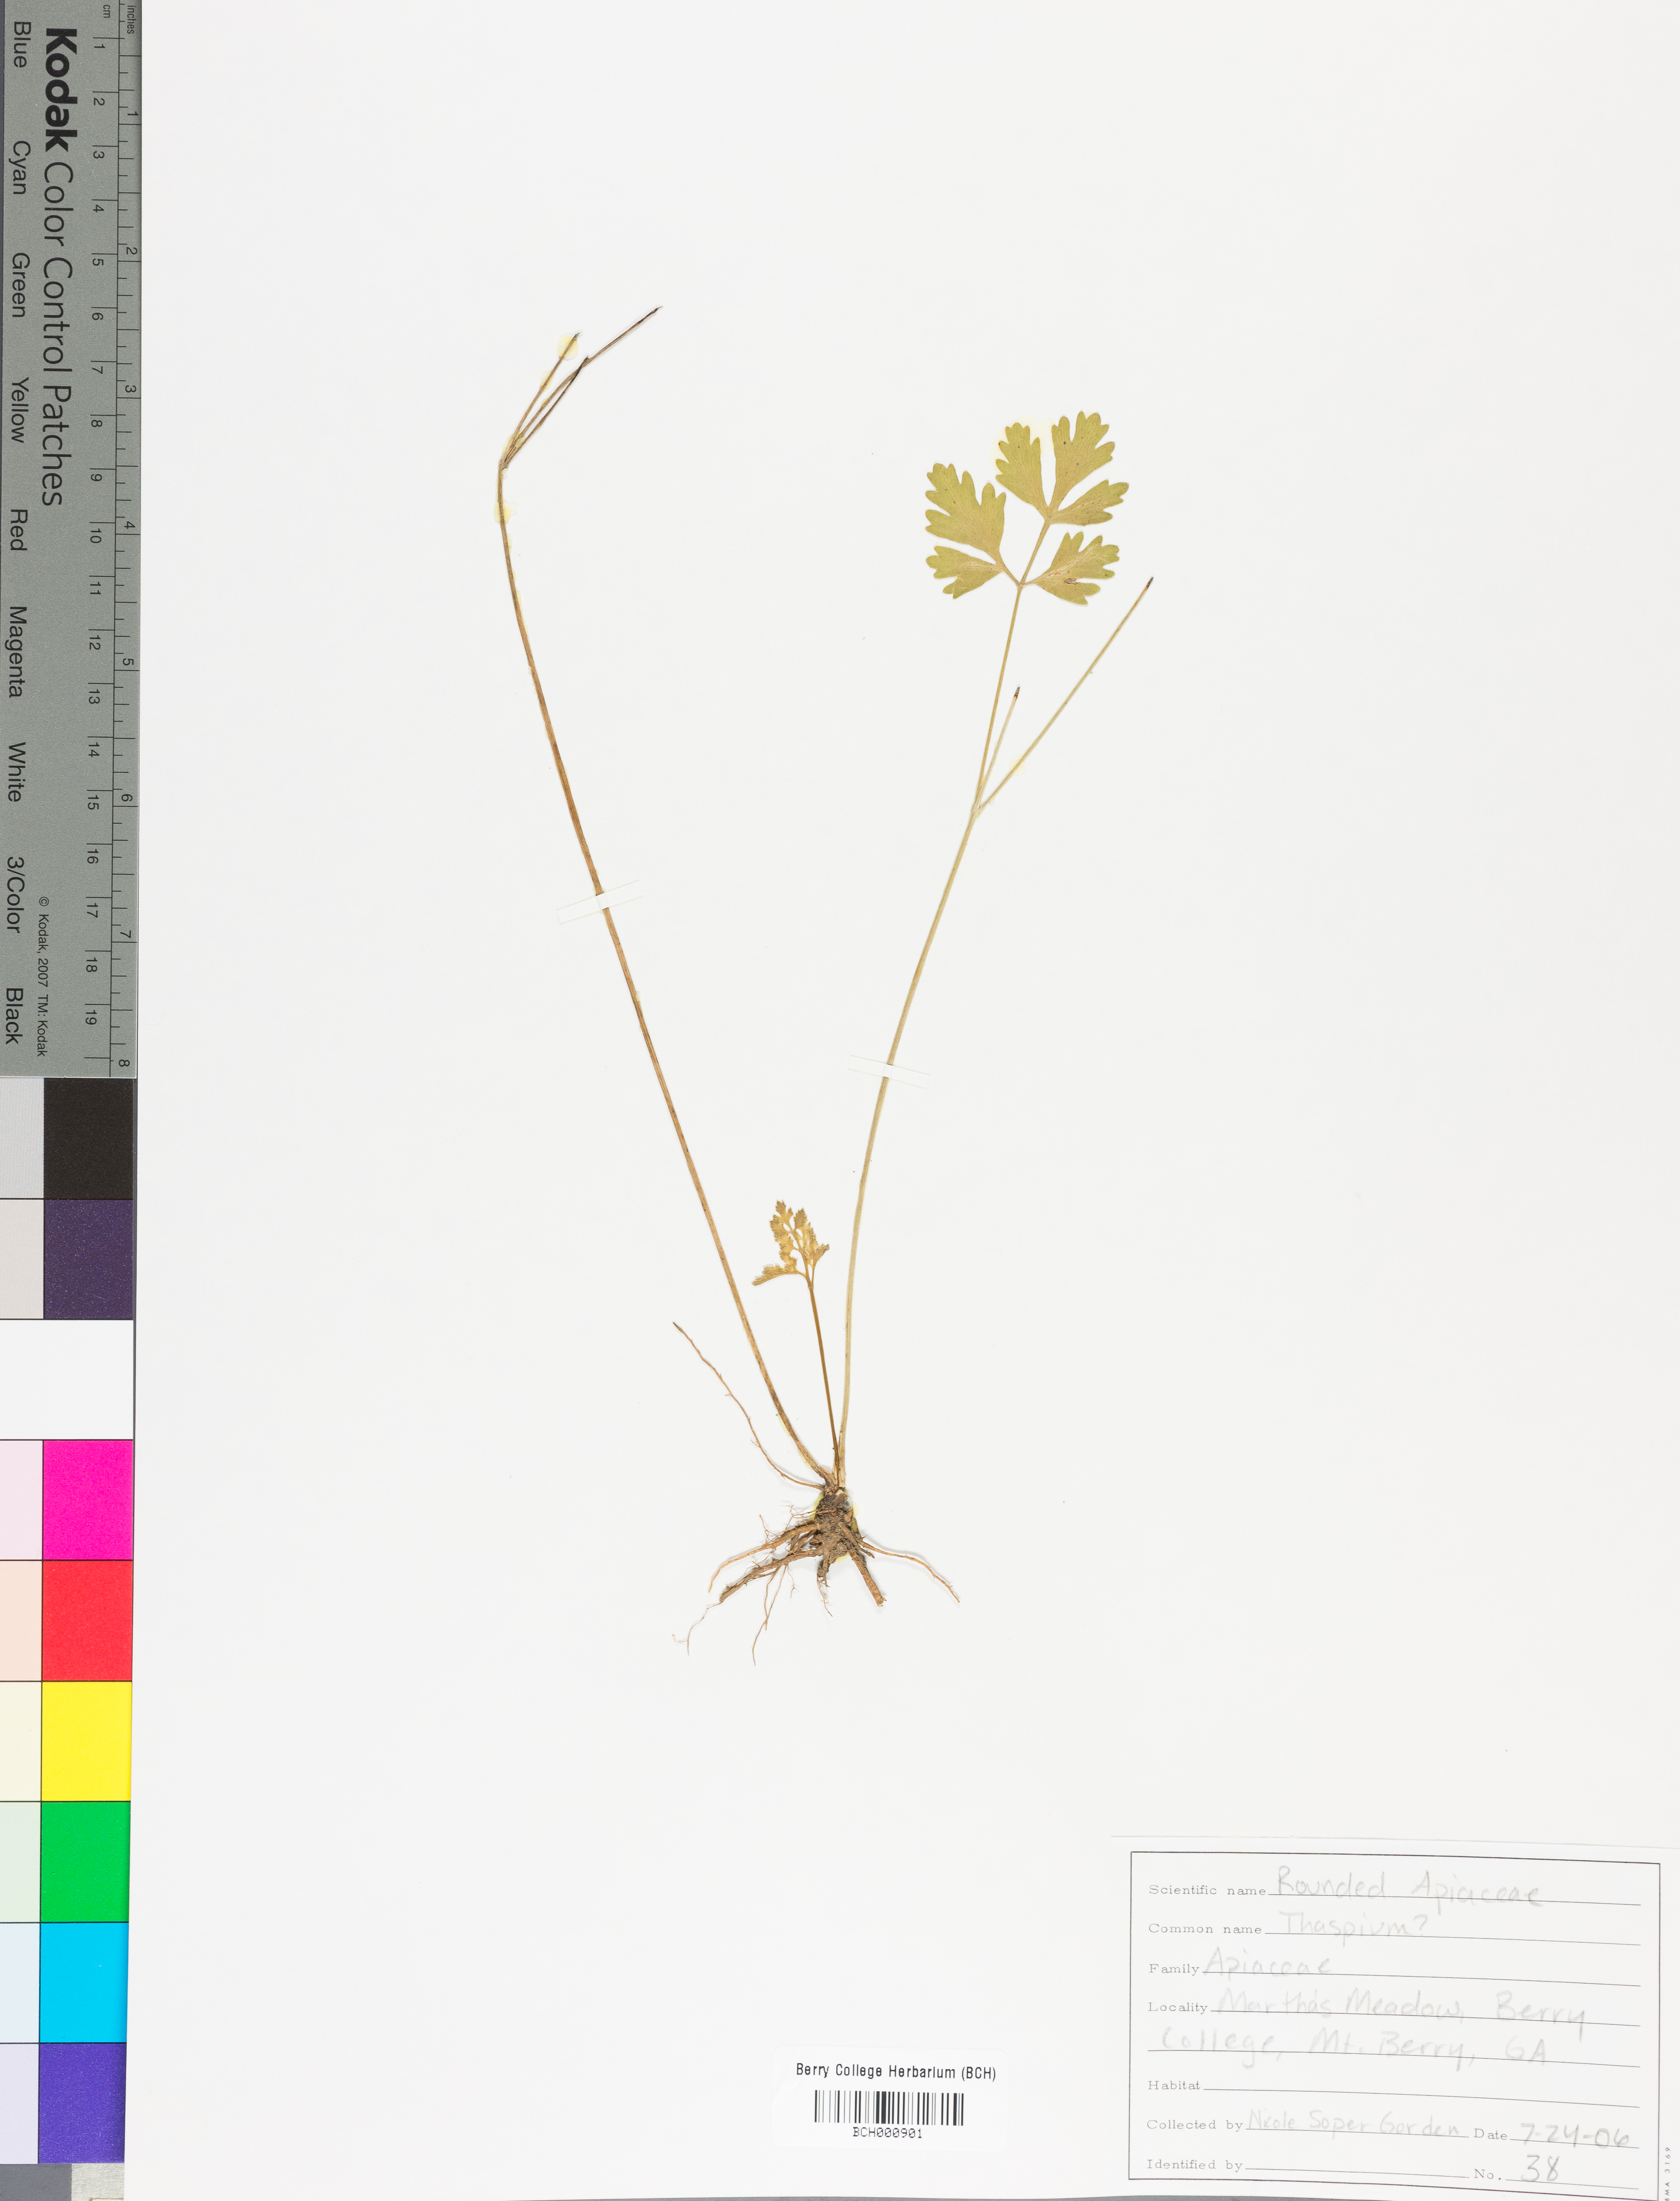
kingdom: Plantae
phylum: Tracheophyta
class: Magnoliopsida
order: Lamiales
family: Acanthaceae
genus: Adhatoda
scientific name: Adhatoda
